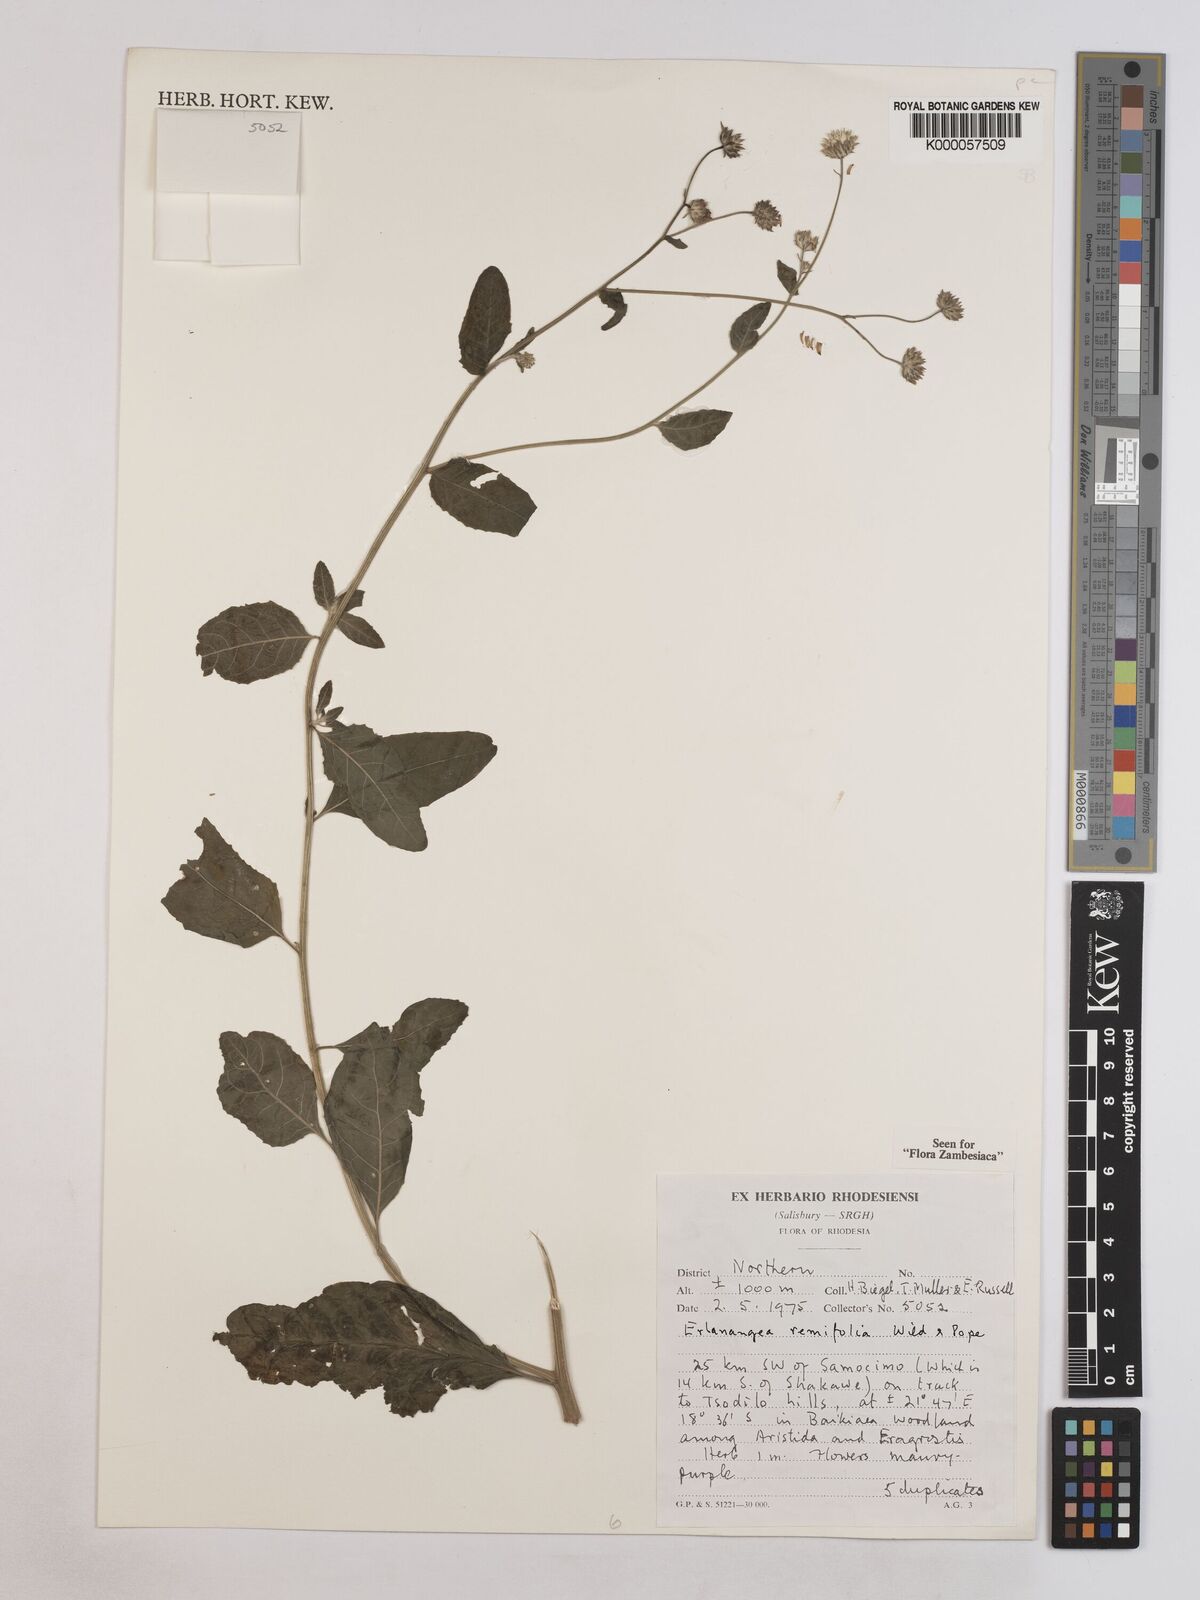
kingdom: Plantae
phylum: Tracheophyta
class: Magnoliopsida
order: Asterales
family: Asteraceae
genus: Erlangea
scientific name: Erlangea remifolia
